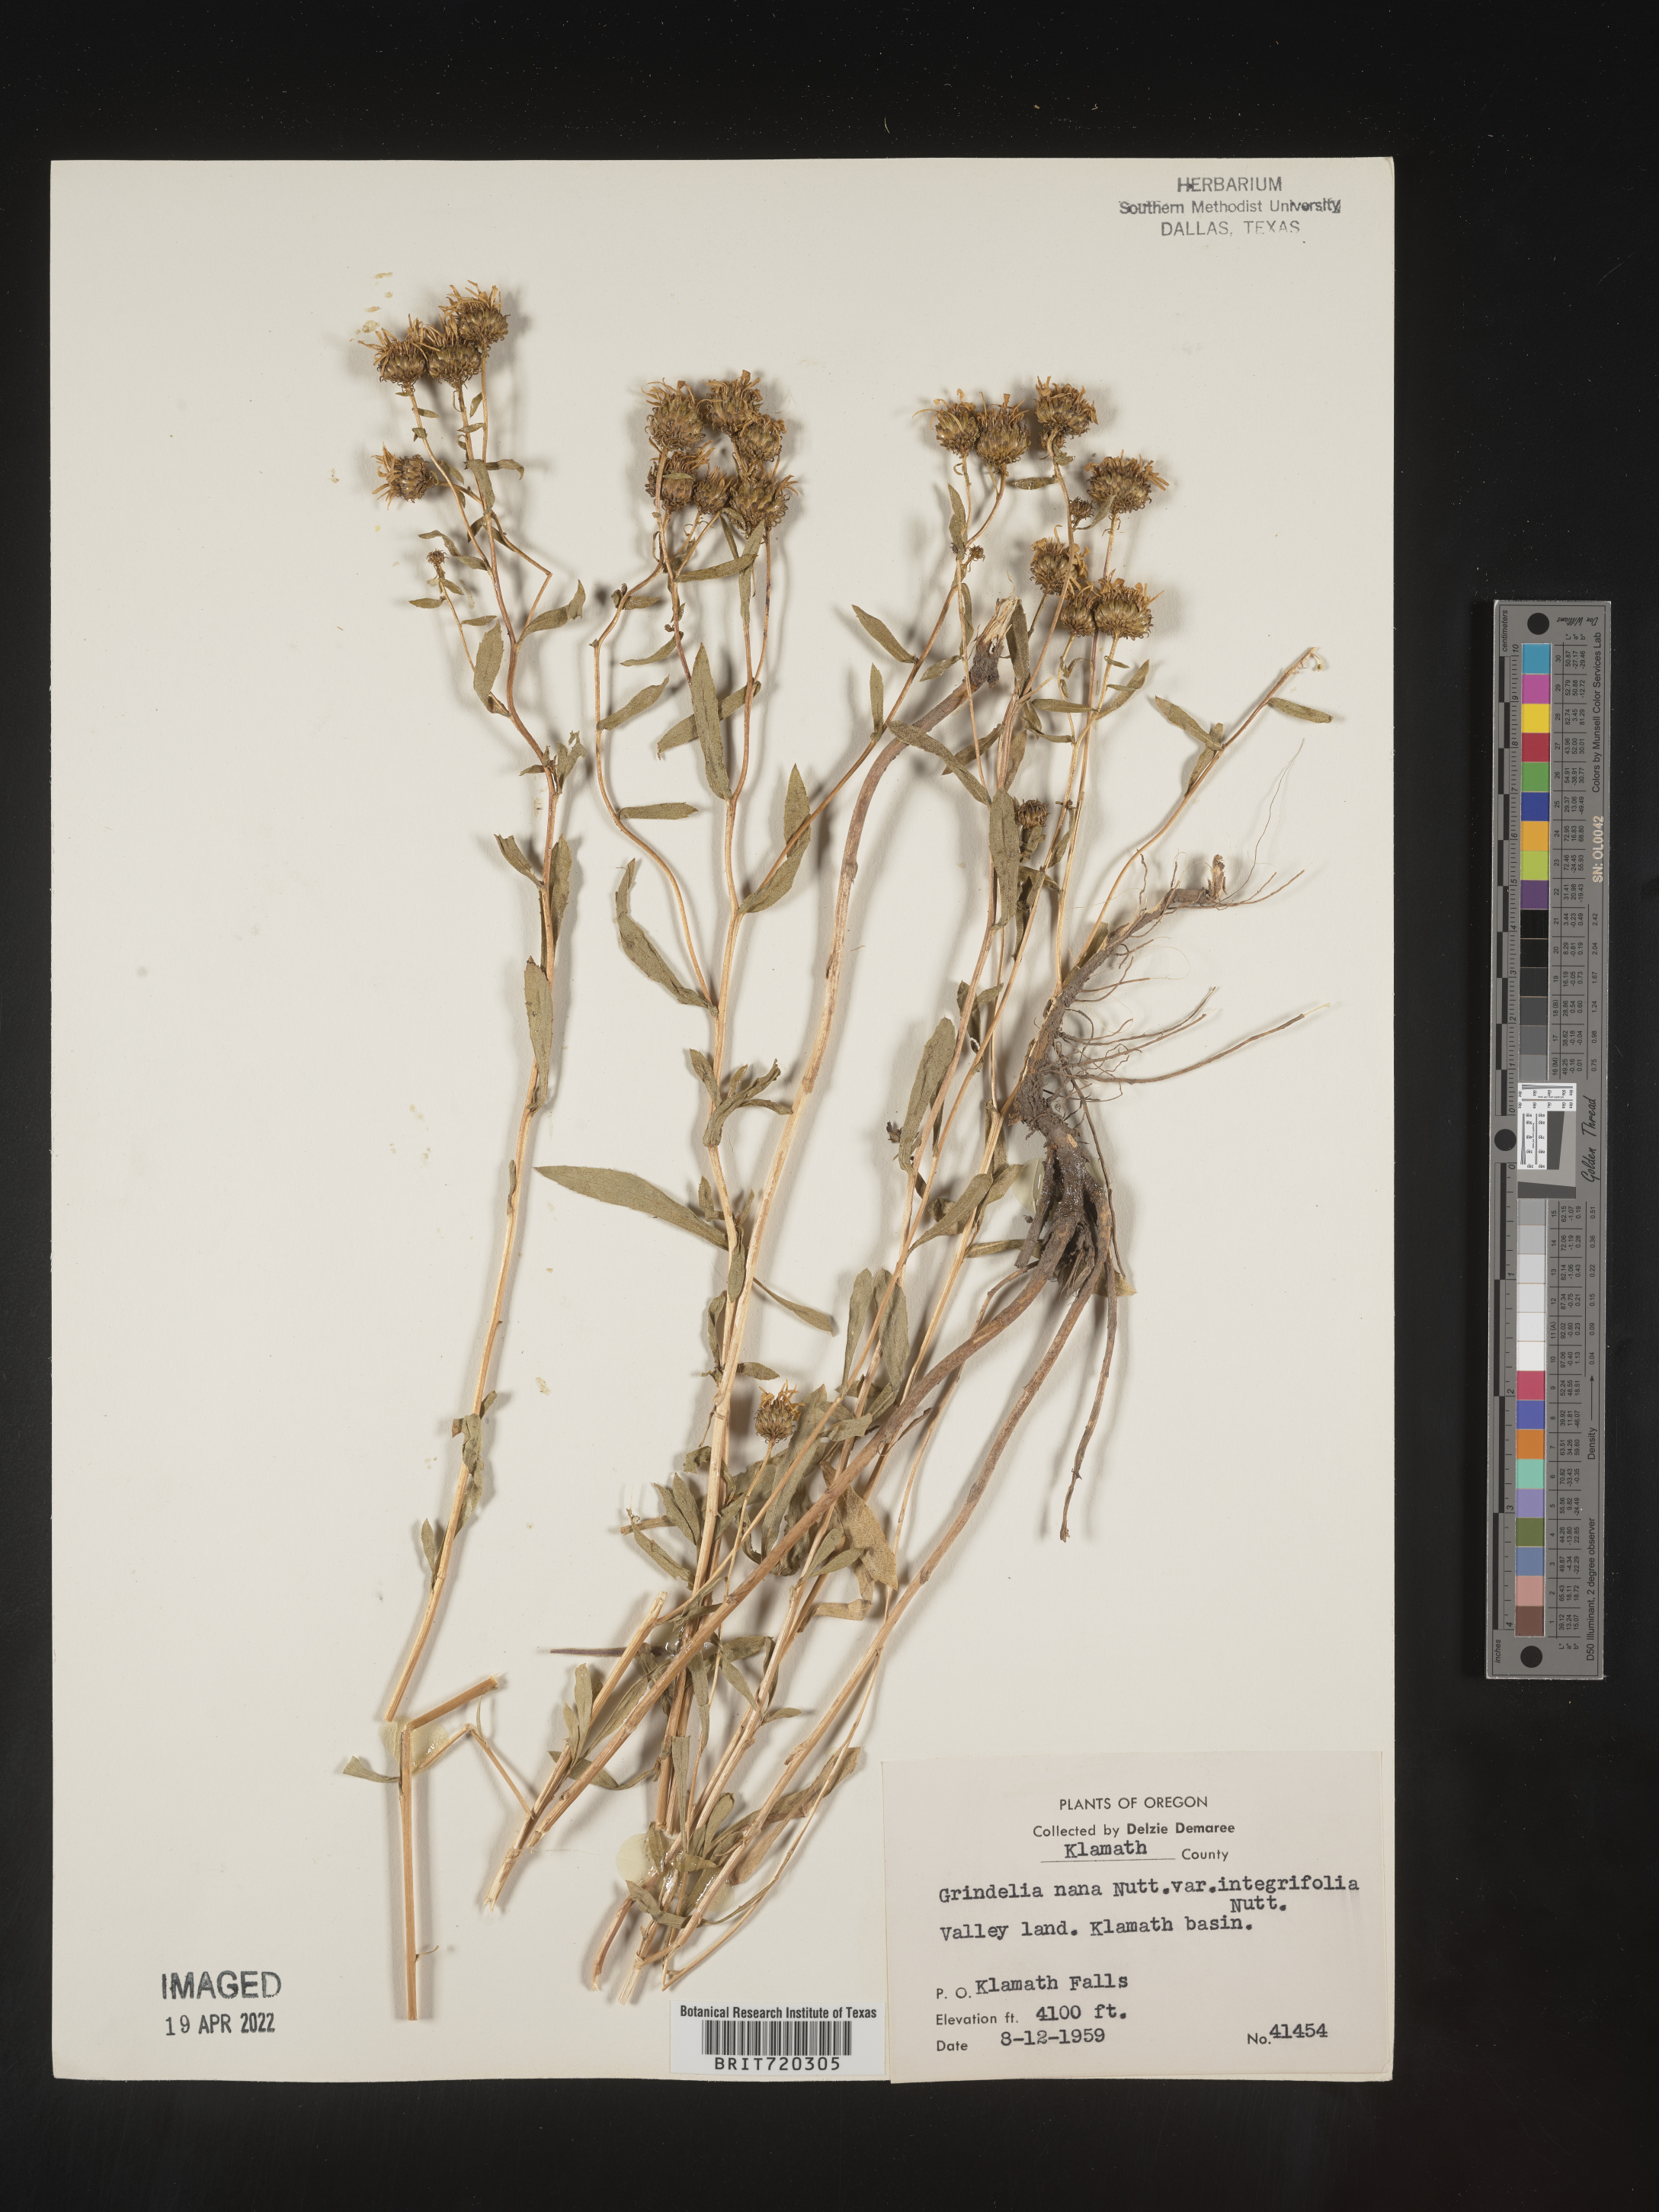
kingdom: Plantae
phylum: Tracheophyta
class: Magnoliopsida
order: Asterales
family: Asteraceae
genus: Grindelia
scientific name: Grindelia hirsutula
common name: Hairy gumweed
